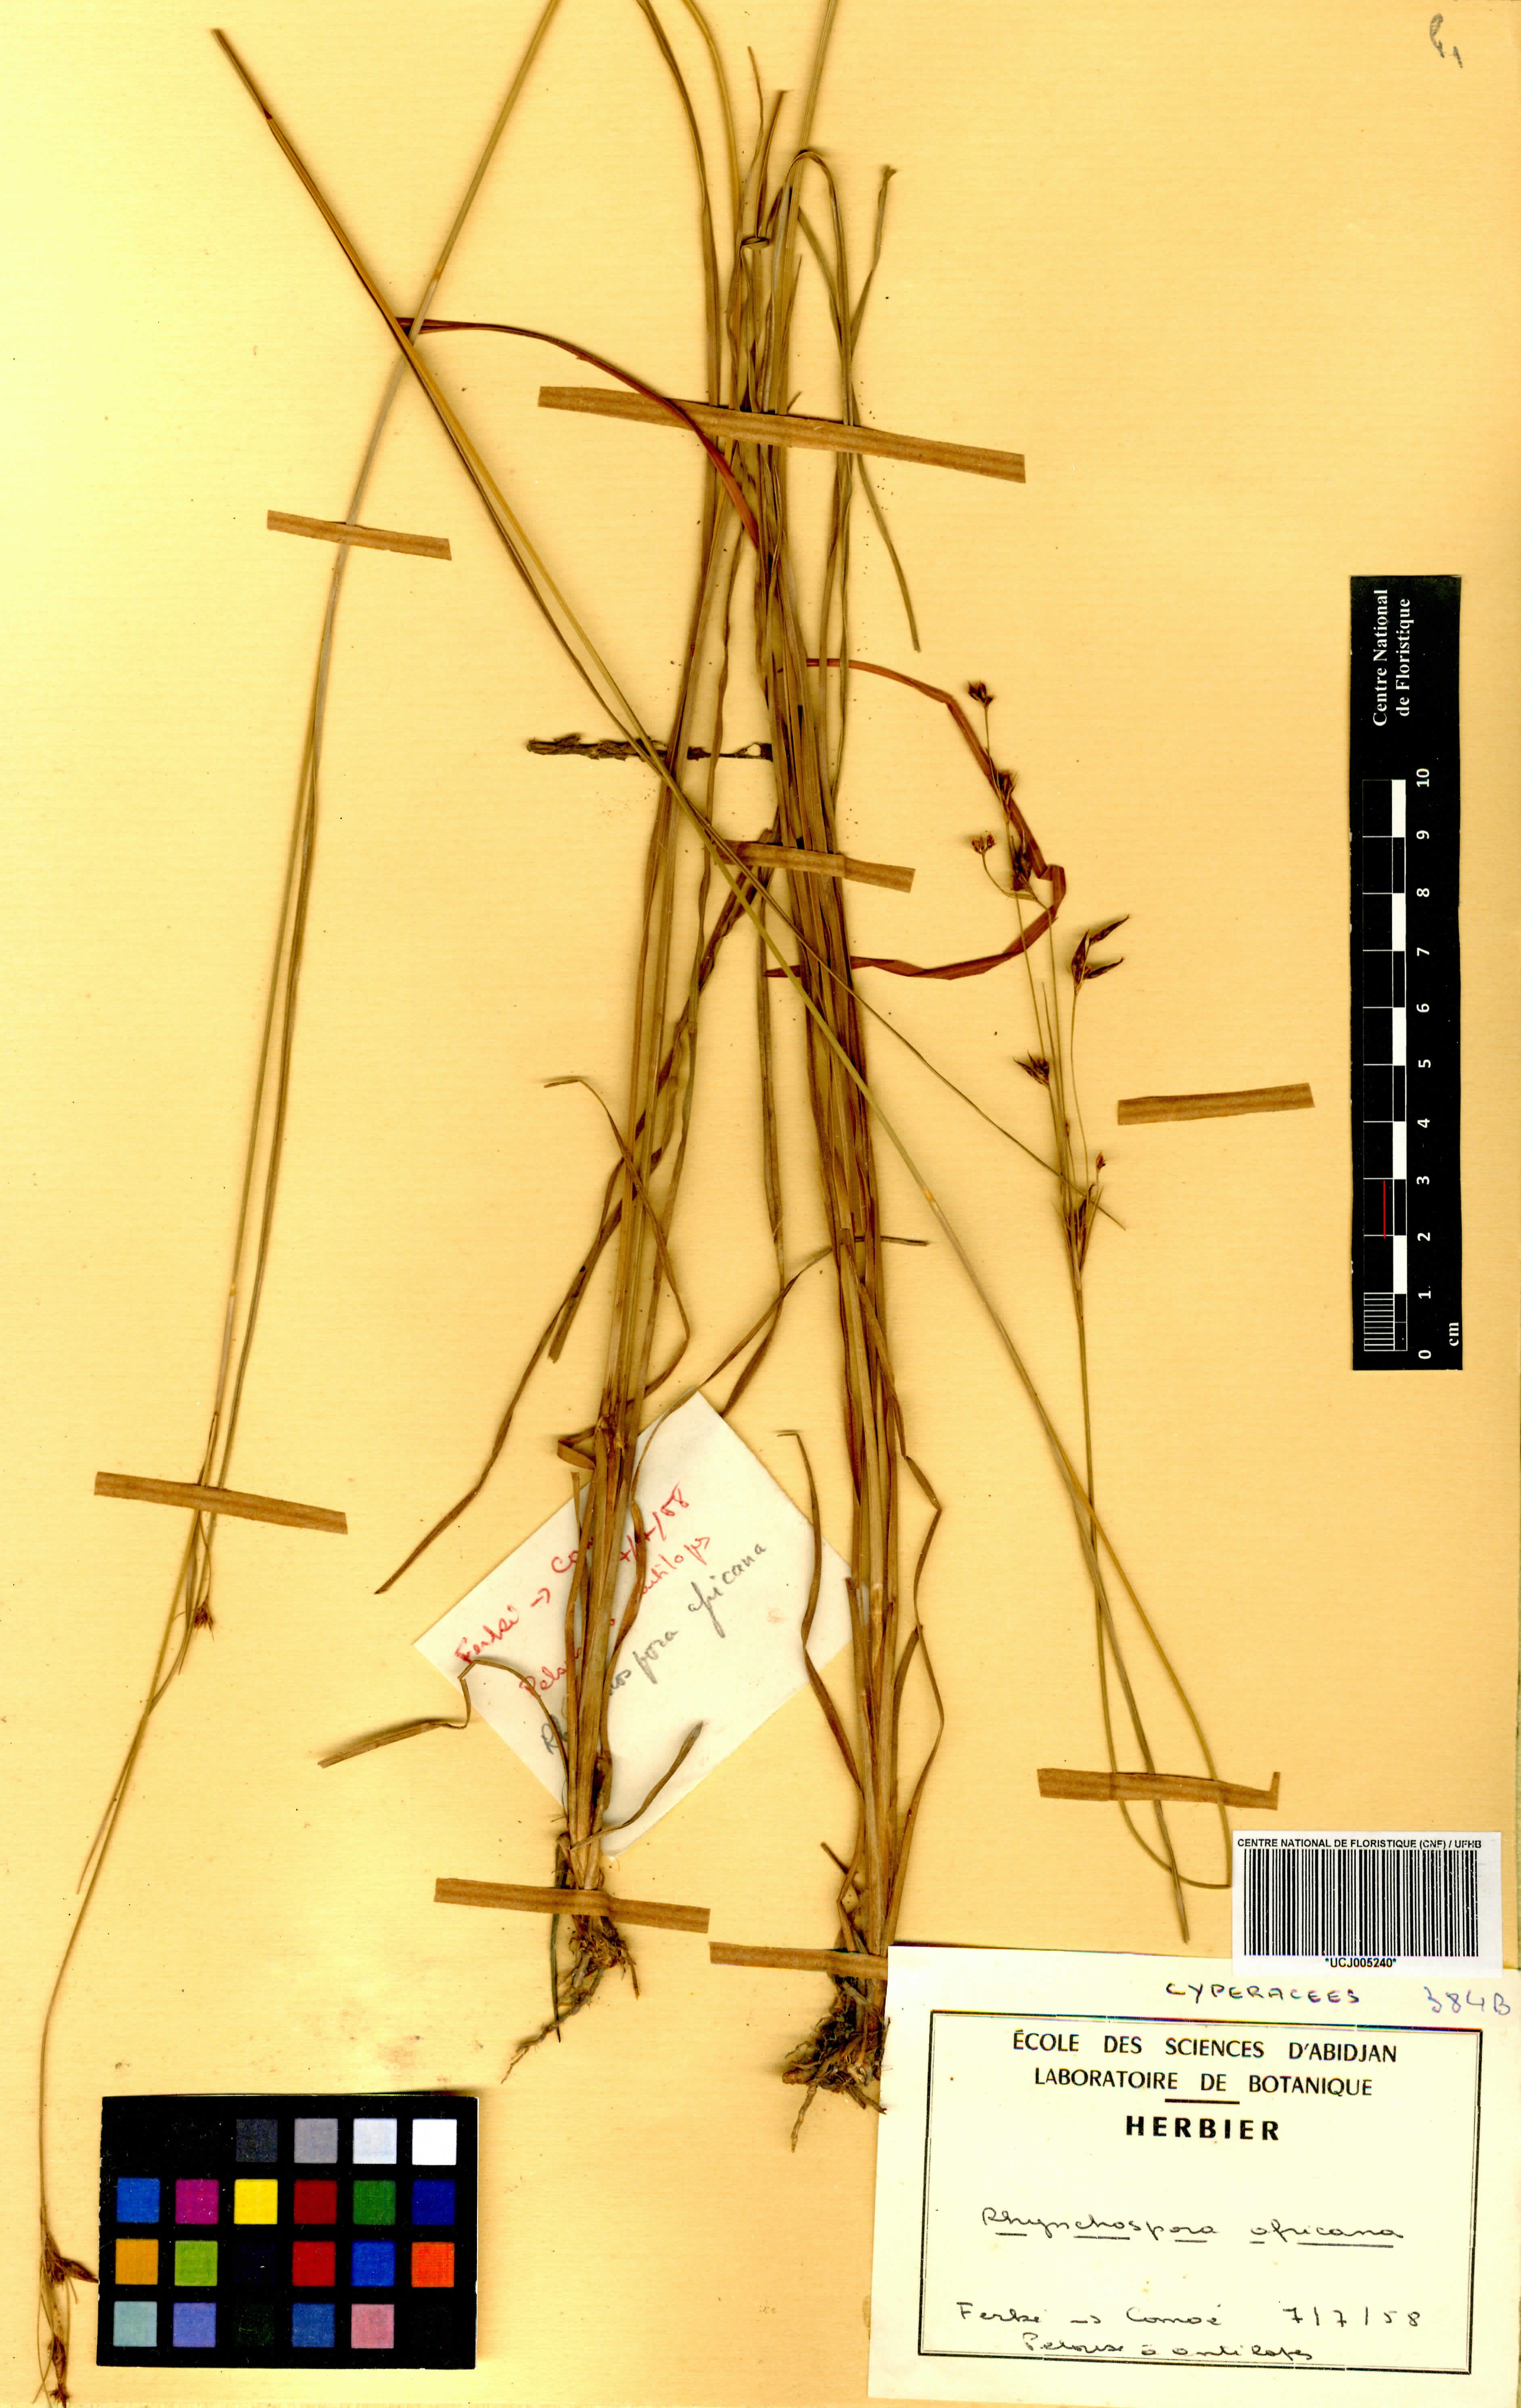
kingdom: Plantae
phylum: Tracheophyta
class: Liliopsida
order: Poales
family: Cyperaceae
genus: Rhynchospora
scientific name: Rhynchospora angolensis
